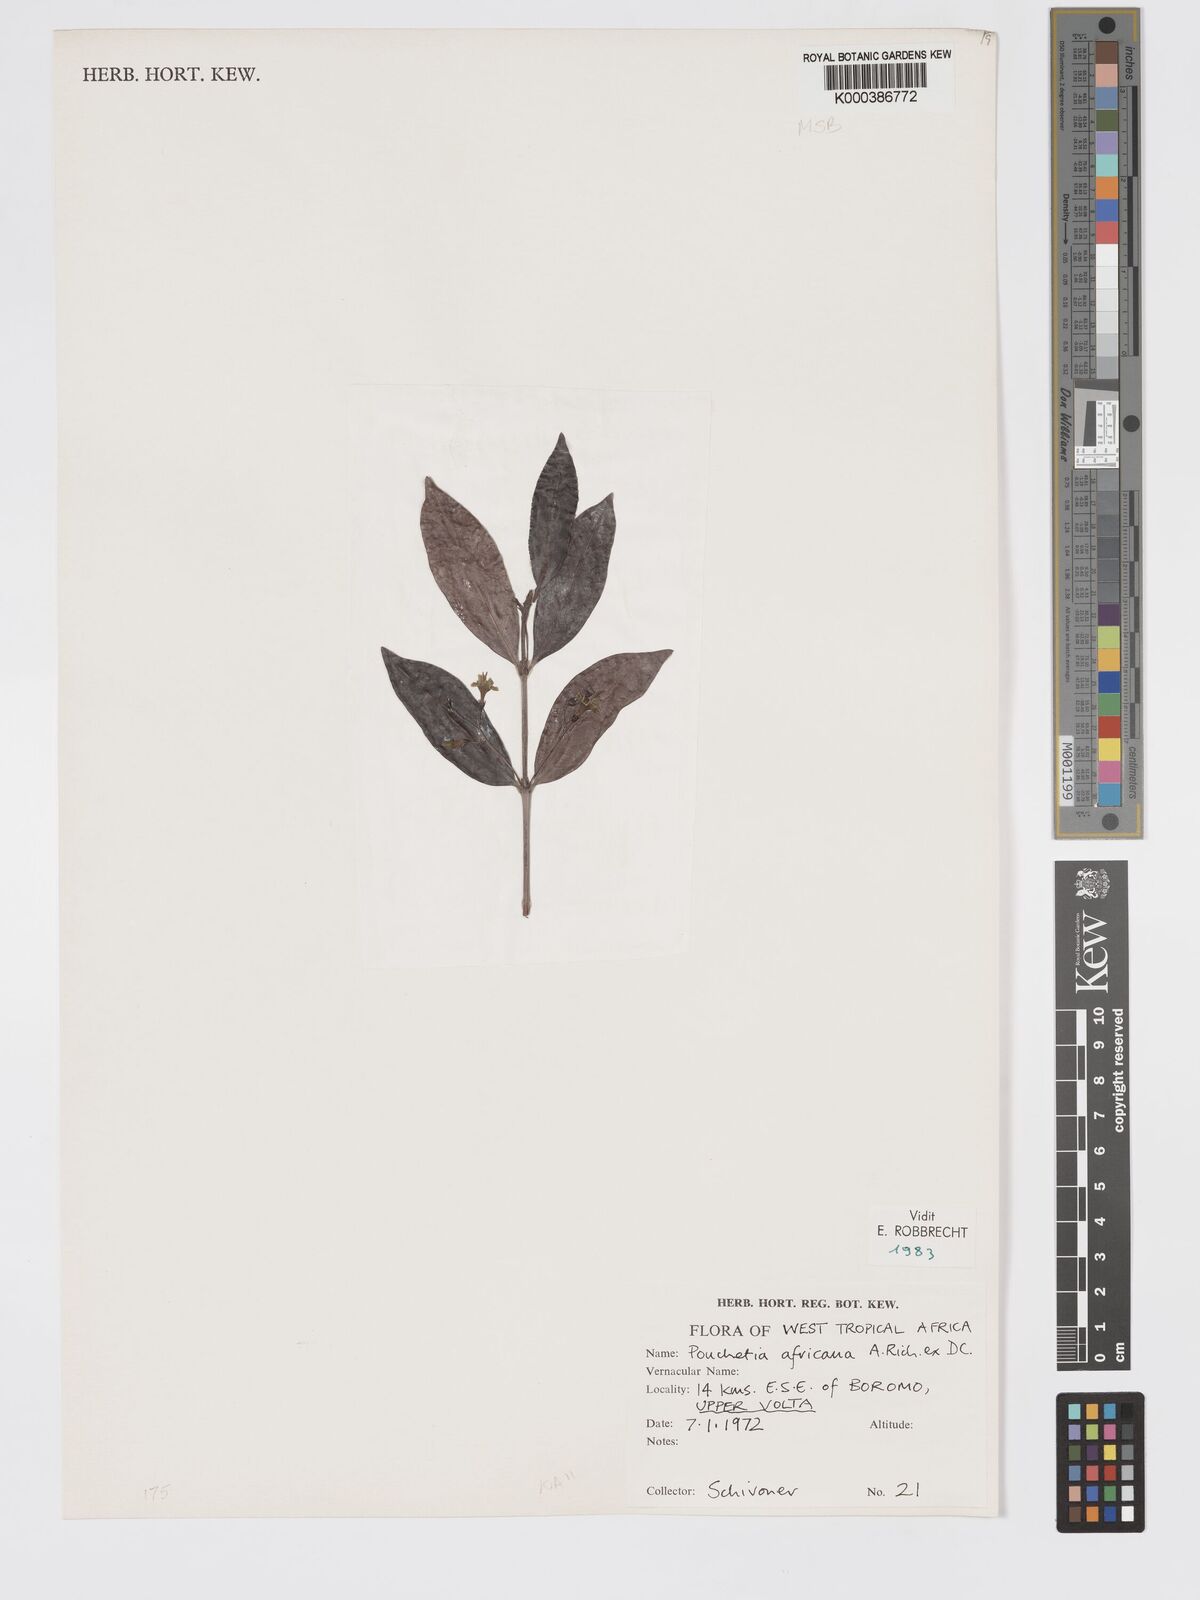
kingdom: Plantae
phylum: Tracheophyta
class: Magnoliopsida
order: Gentianales
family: Rubiaceae
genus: Pouchetia
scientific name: Pouchetia africana
